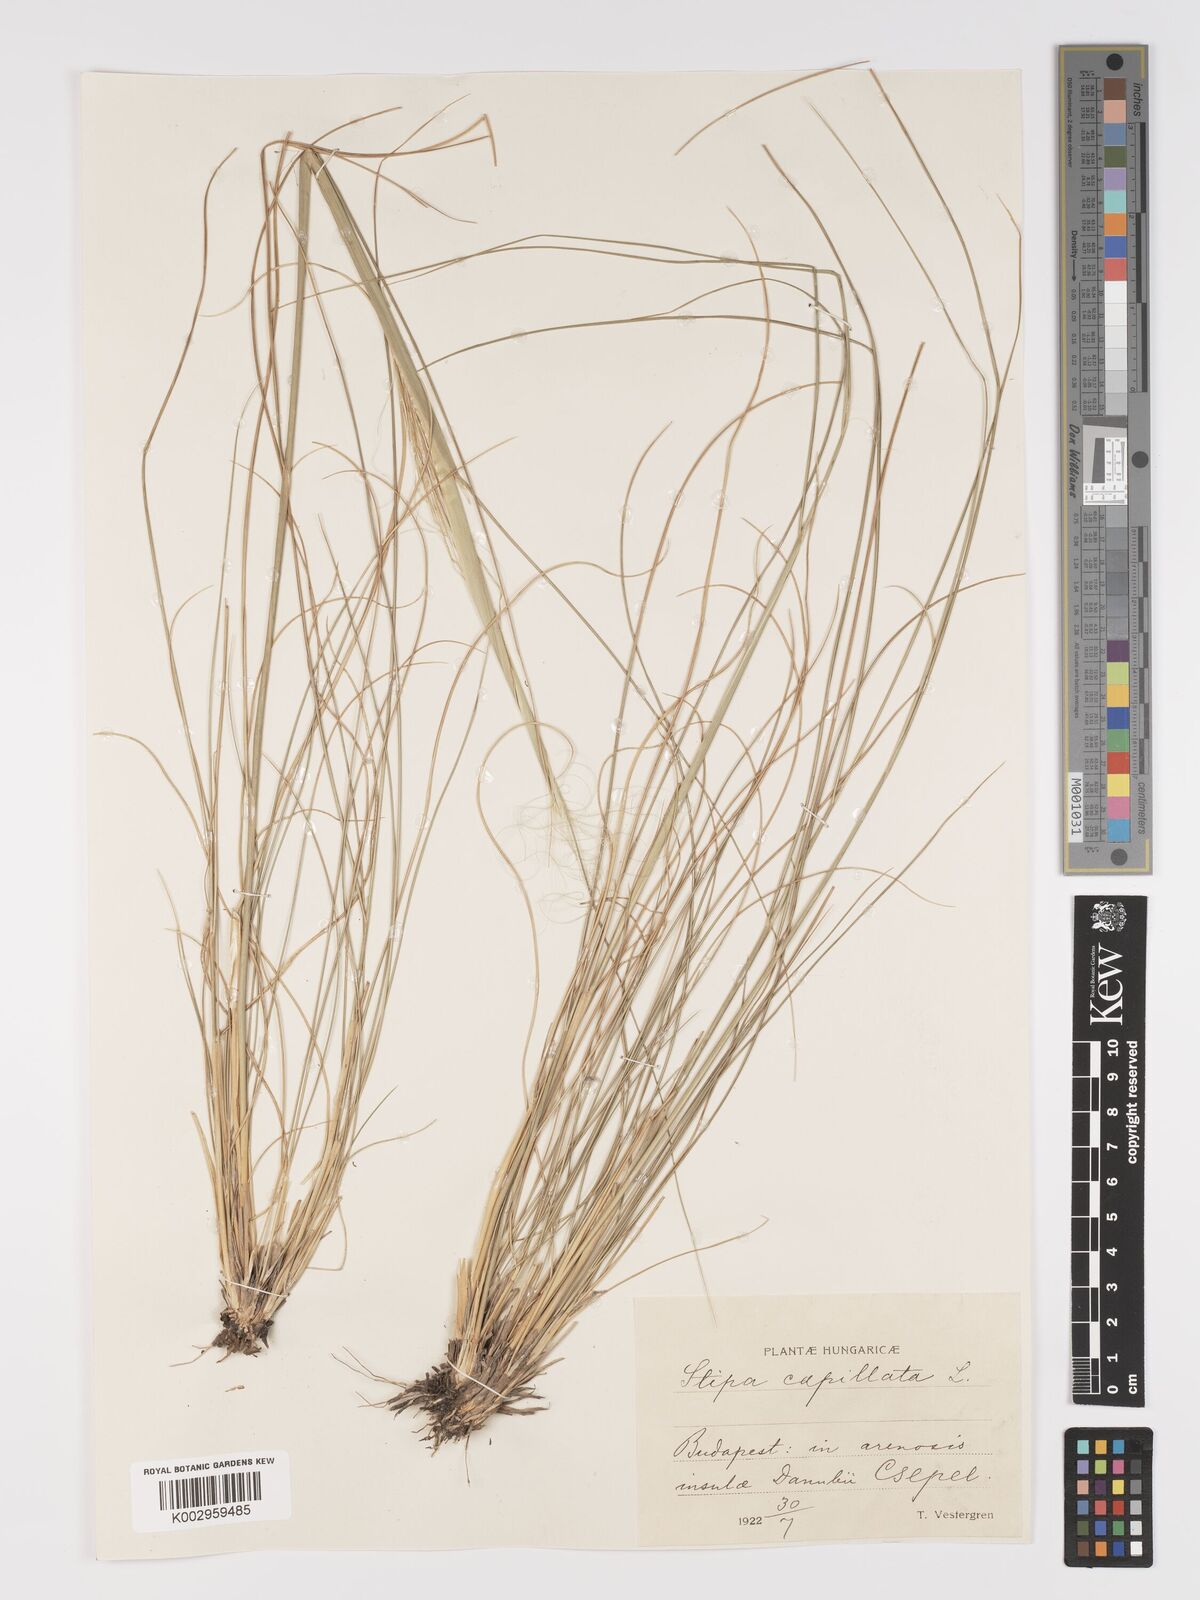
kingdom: Plantae
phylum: Tracheophyta
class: Liliopsida
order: Poales
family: Poaceae
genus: Stipa
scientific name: Stipa capillata
